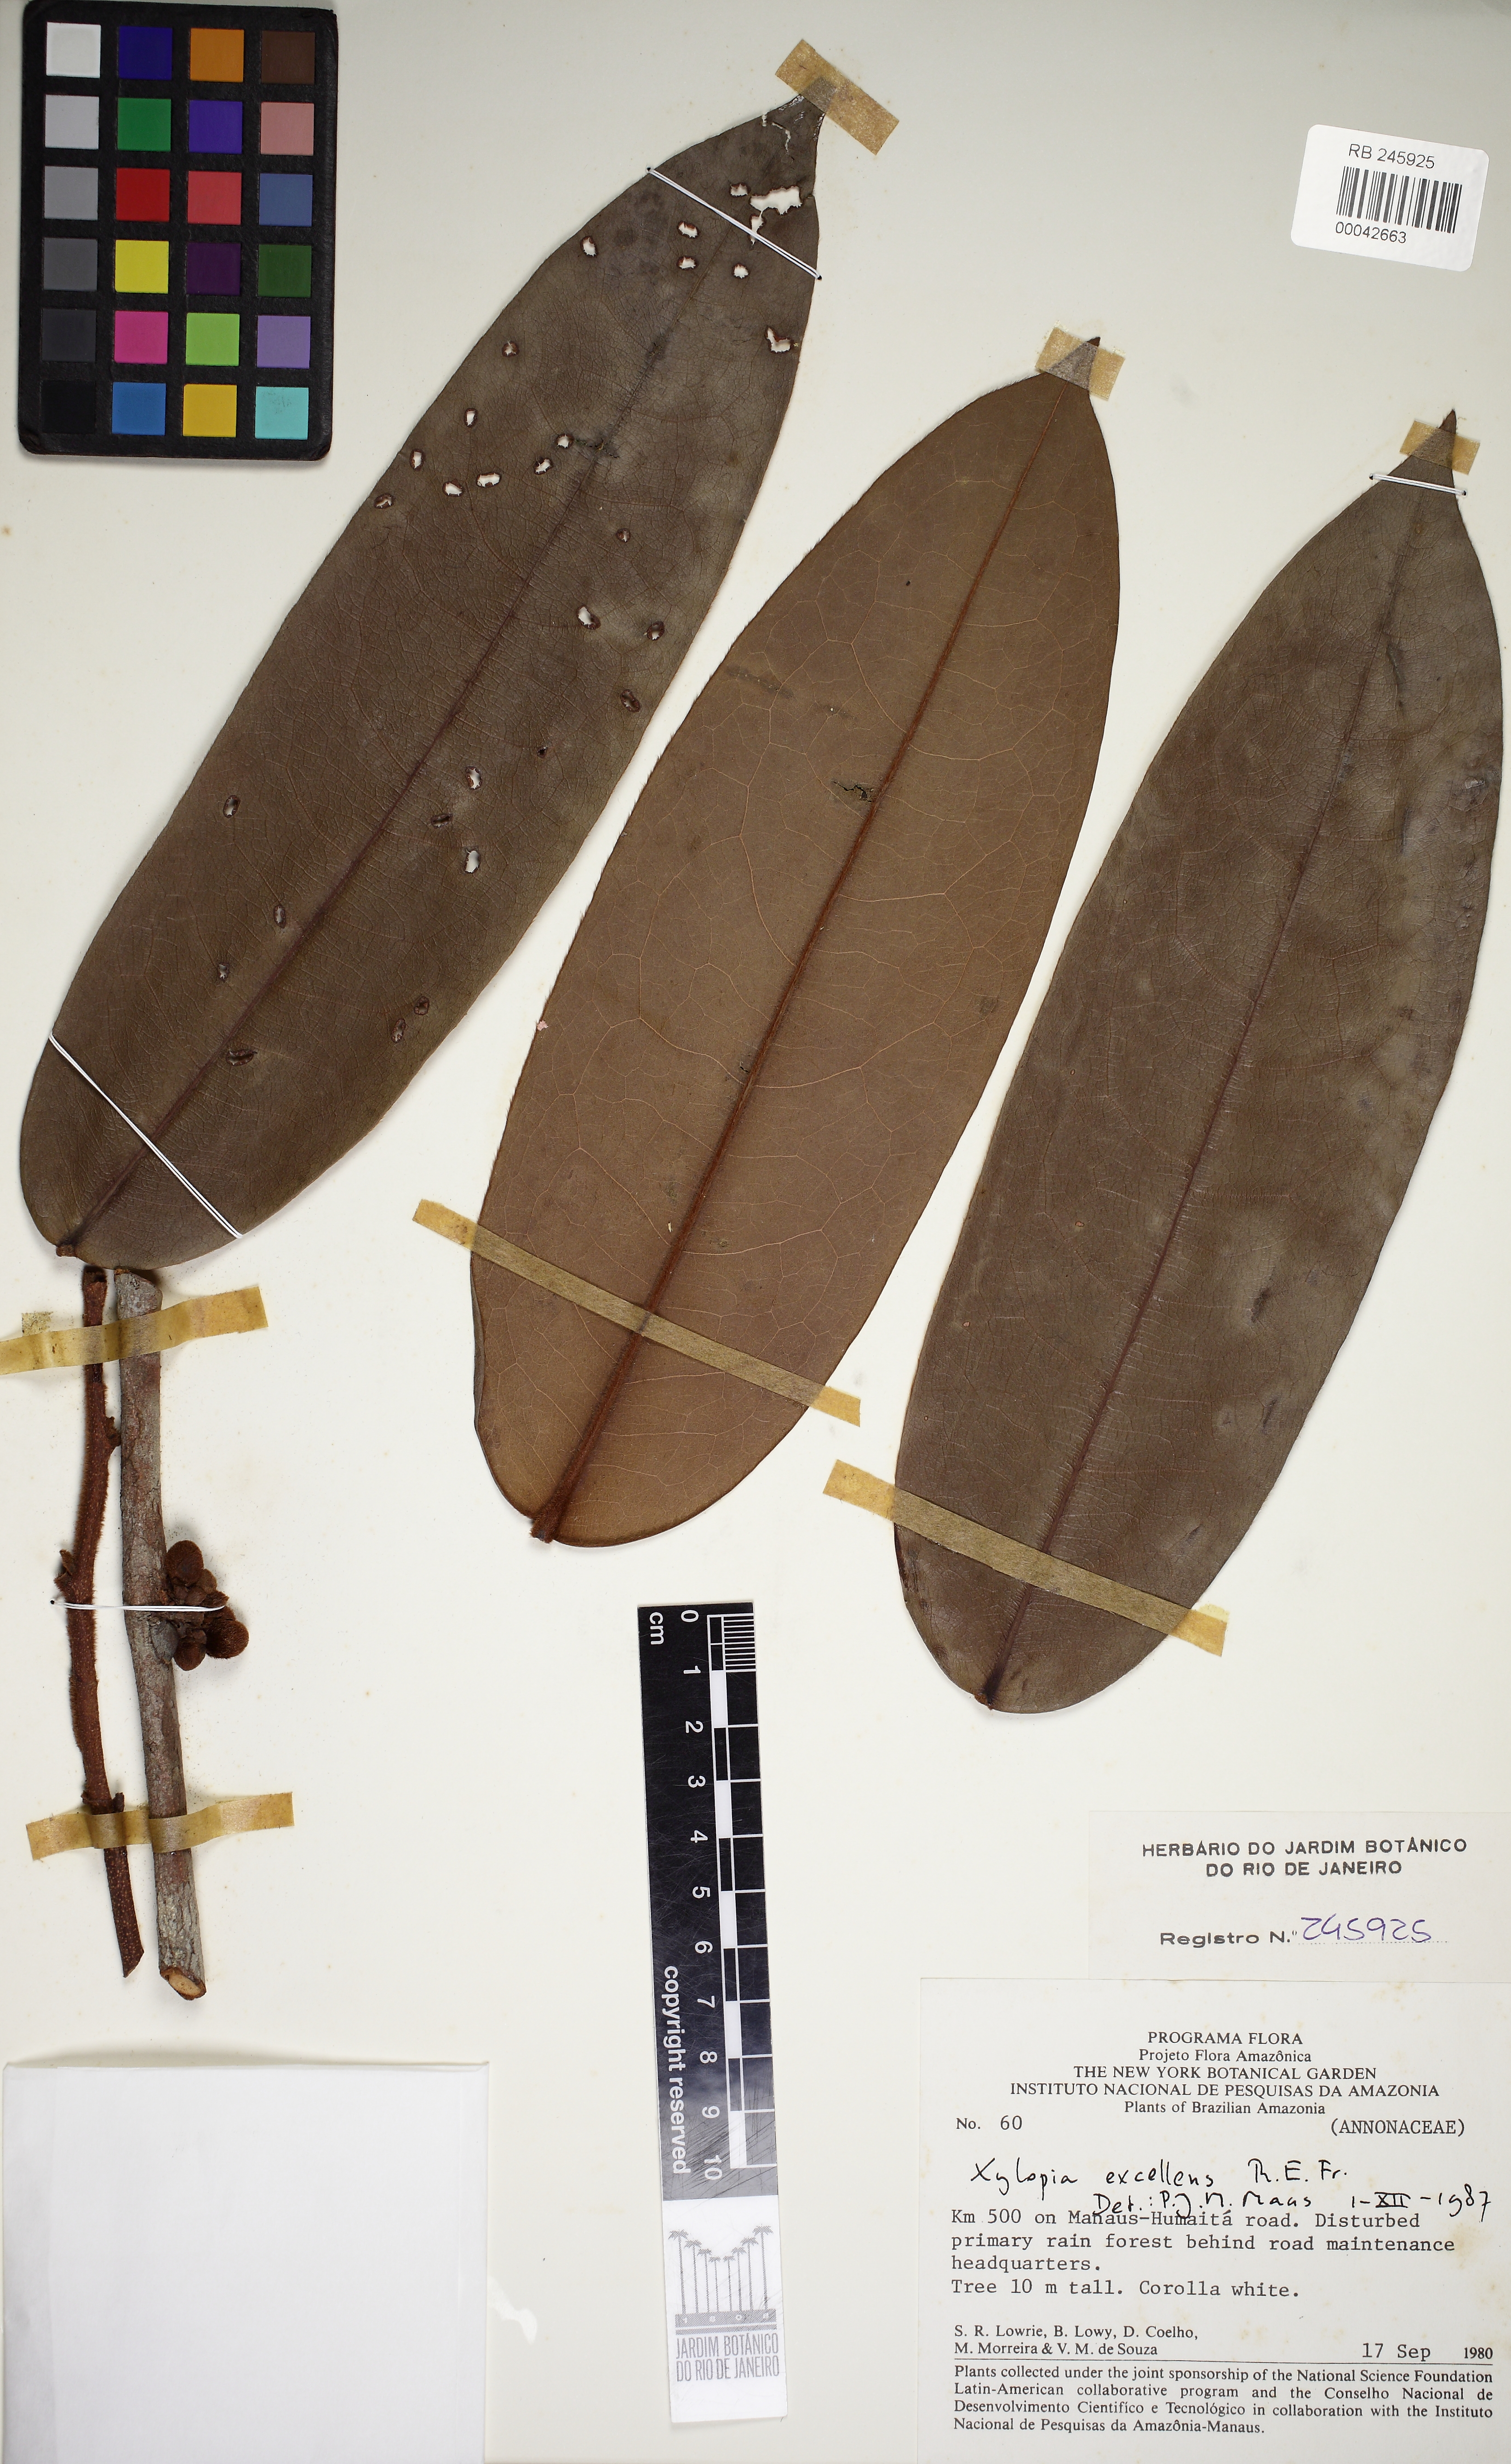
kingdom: Plantae
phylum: Tracheophyta
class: Magnoliopsida
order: Magnoliales
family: Annonaceae
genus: Xylopia
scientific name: Xylopia excellens
